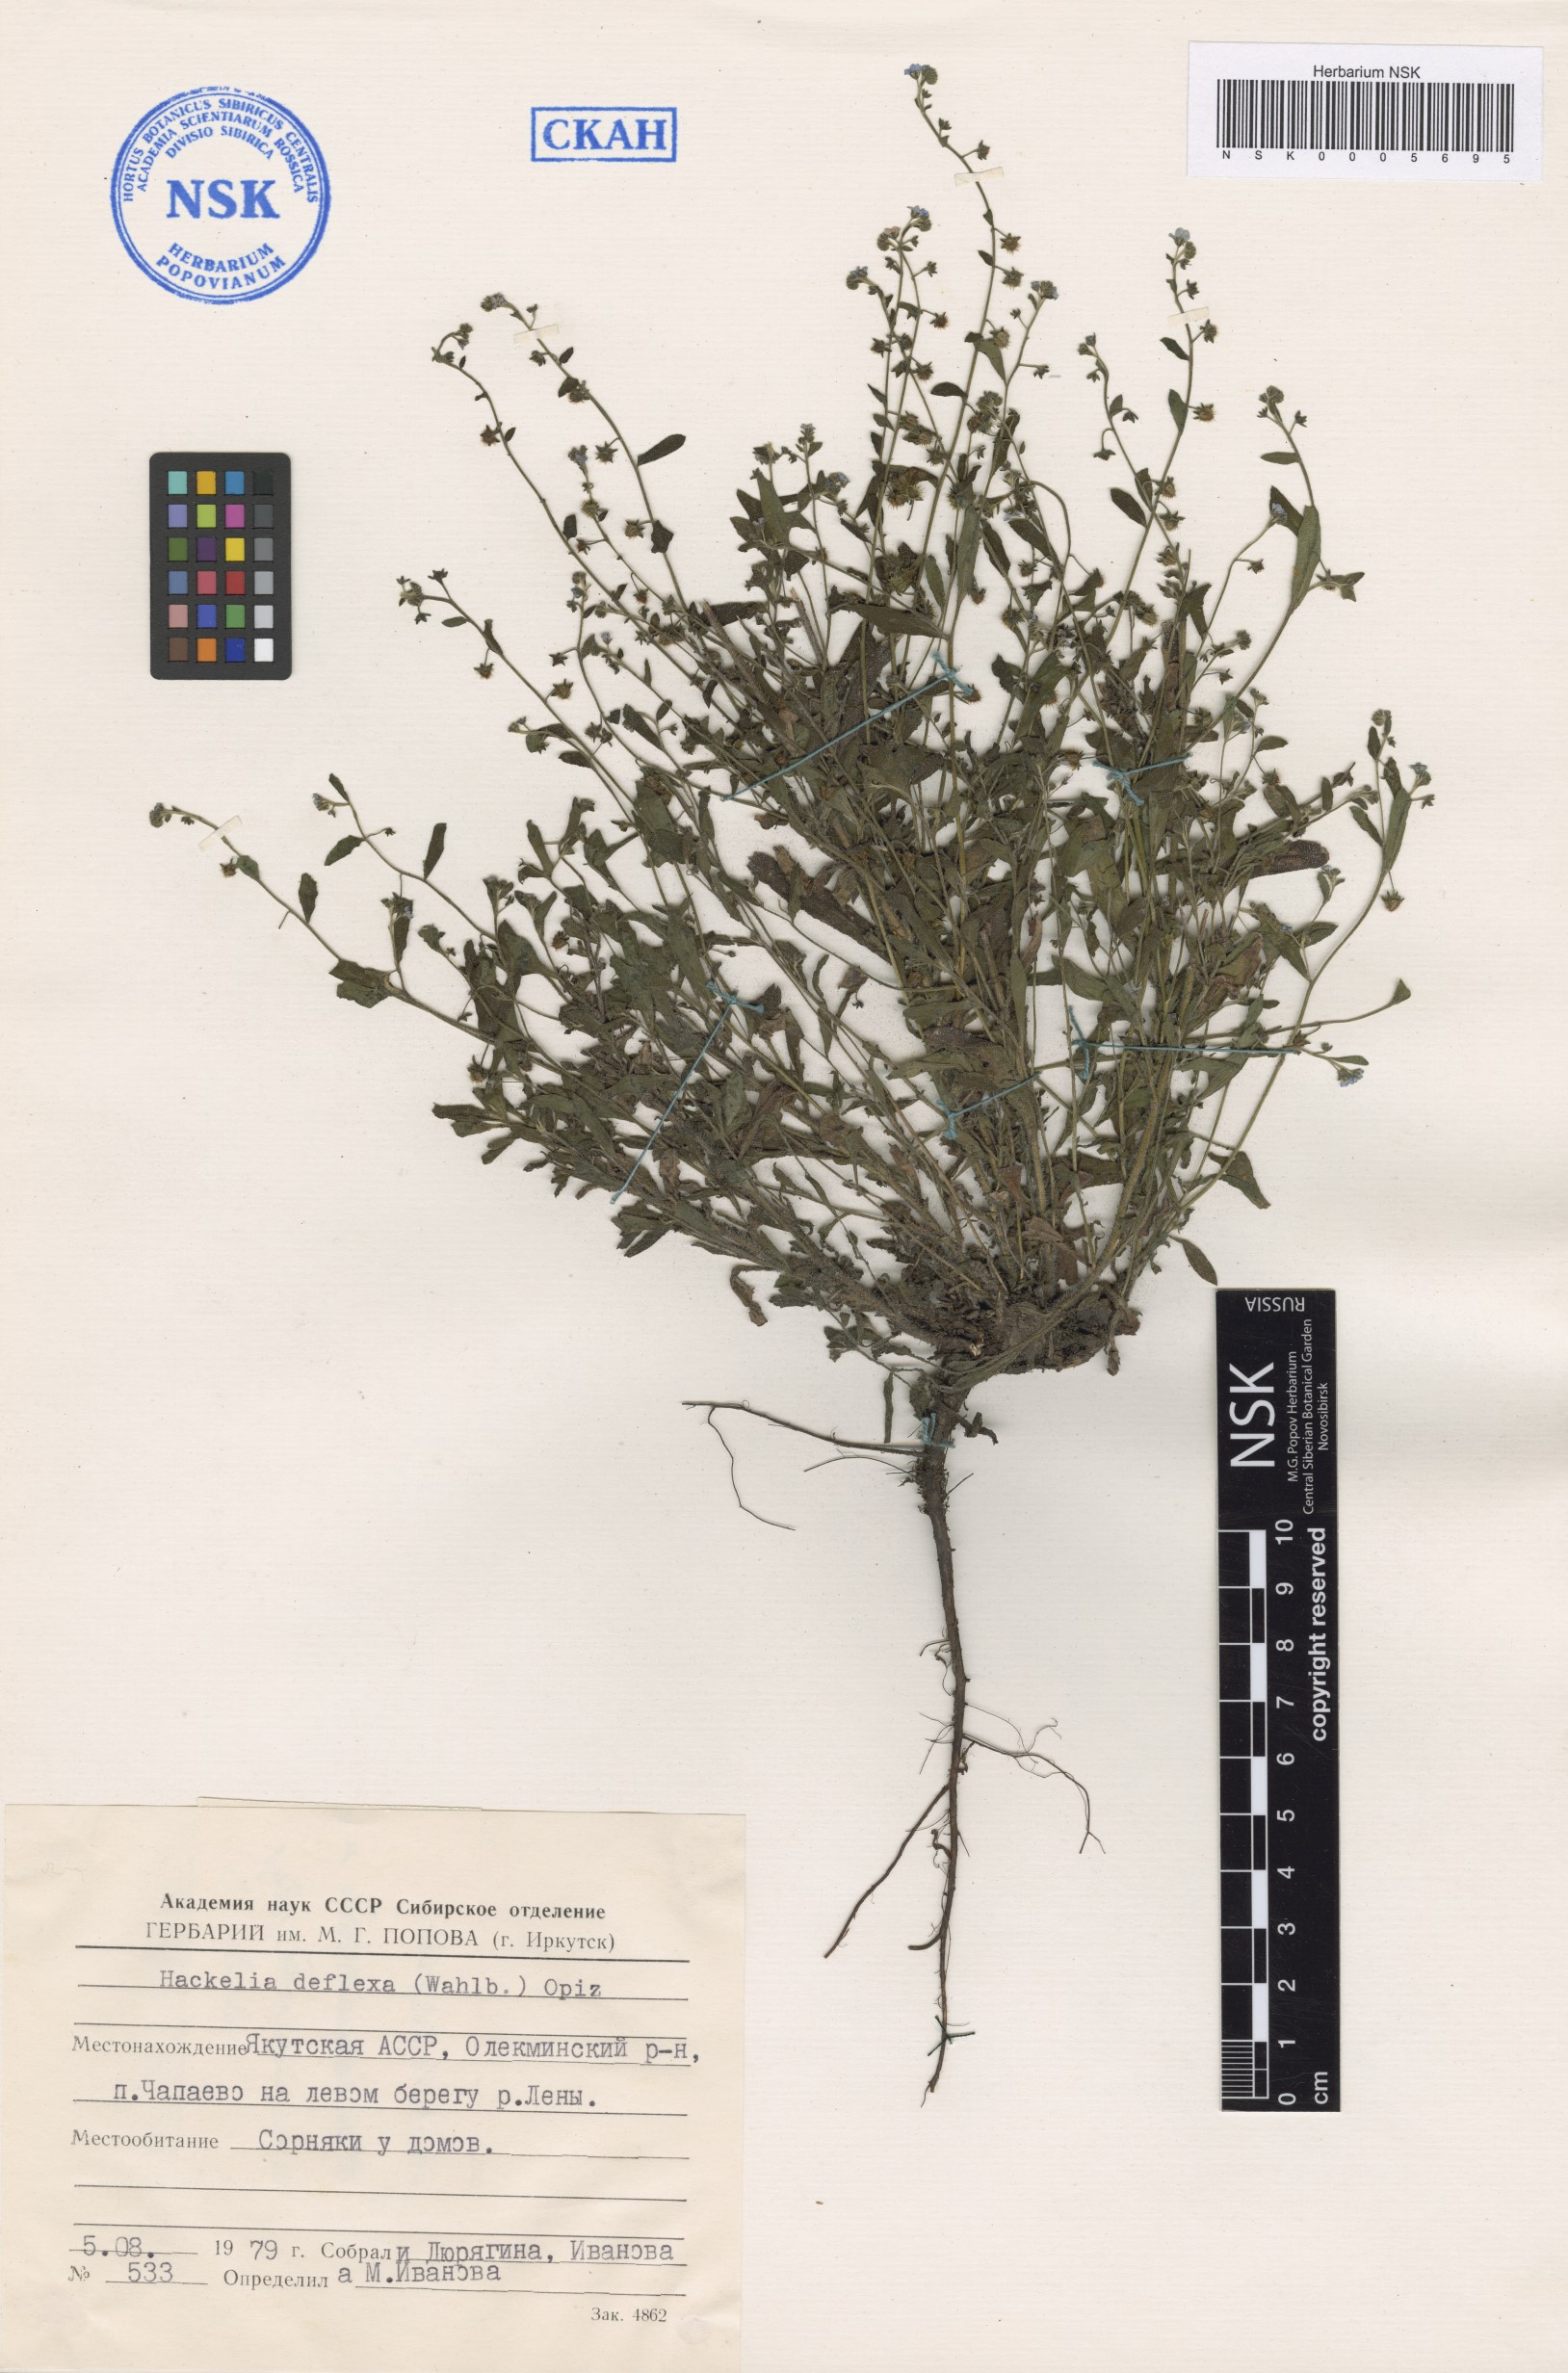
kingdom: Plantae
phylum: Tracheophyta
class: Magnoliopsida
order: Boraginales
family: Boraginaceae
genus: Hackelia
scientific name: Hackelia deflexa
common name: Nodding stickseed
